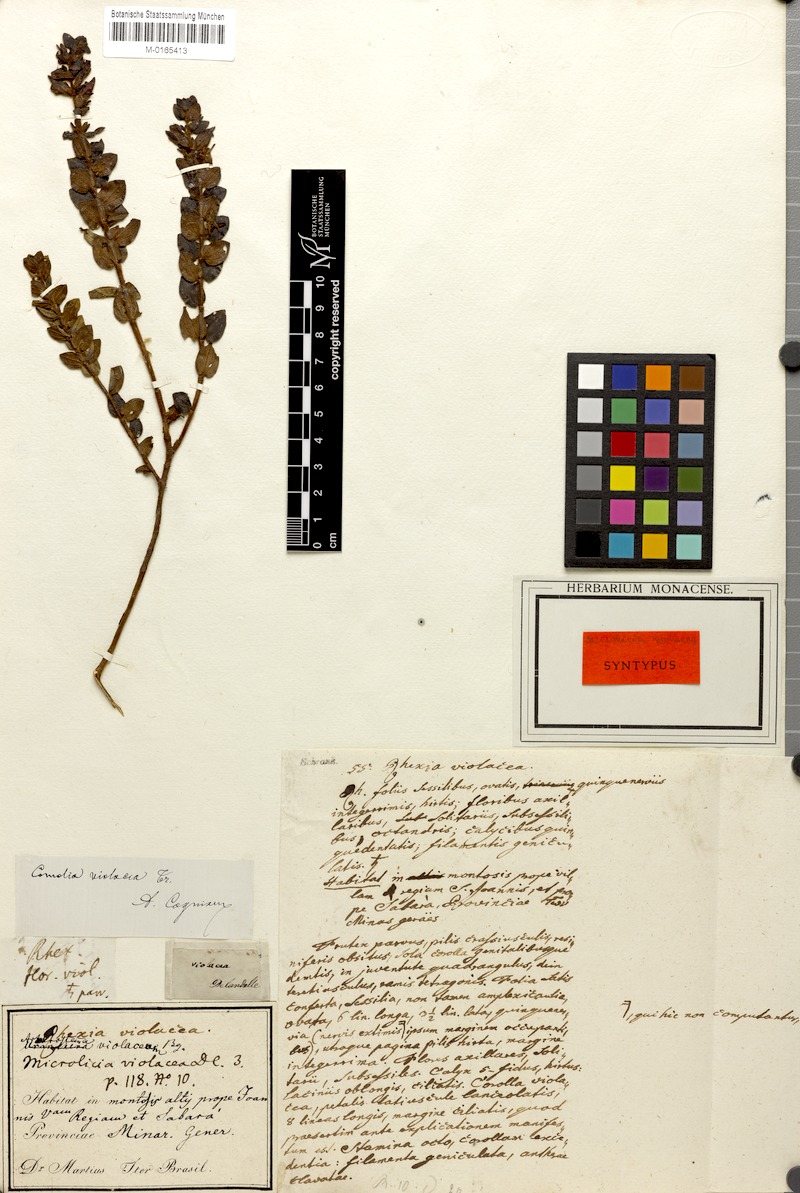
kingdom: Plantae
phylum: Tracheophyta
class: Magnoliopsida
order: Myrtales
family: Melastomataceae
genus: Fritzschia
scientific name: Fritzschia sessilis
